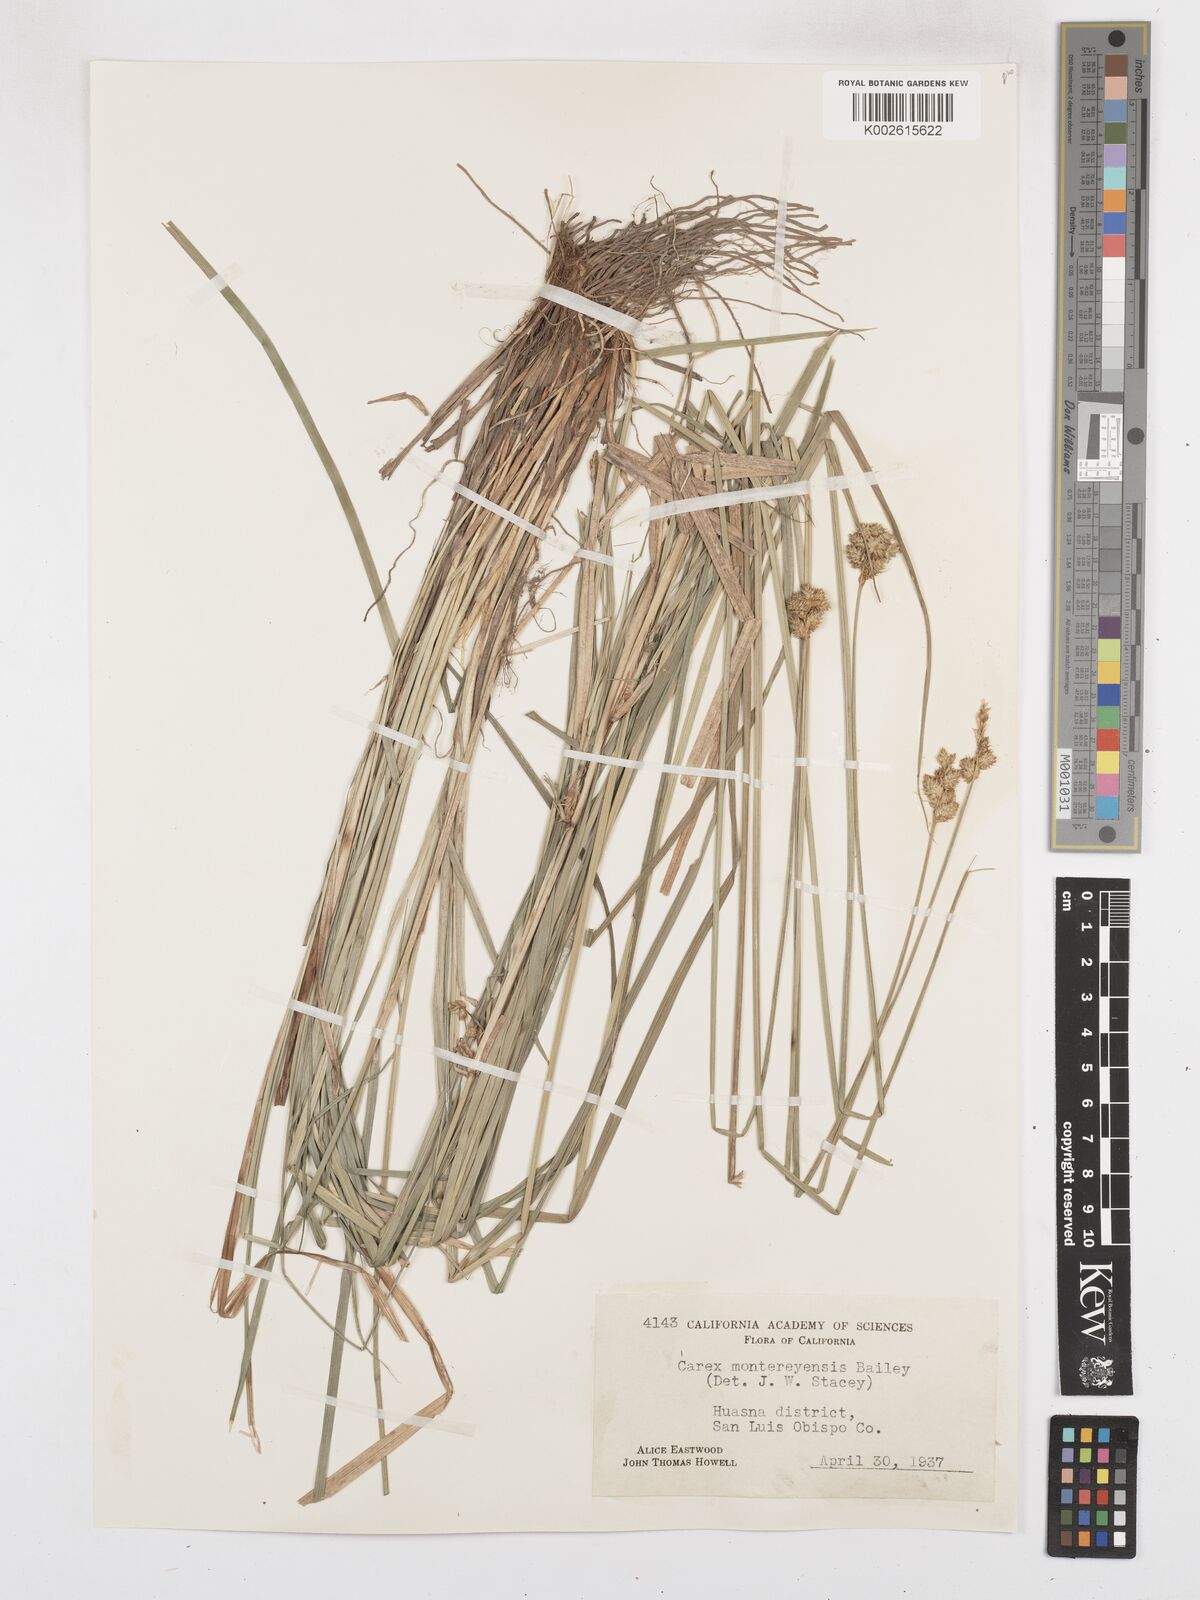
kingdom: Plantae
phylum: Tracheophyta
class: Liliopsida
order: Poales
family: Cyperaceae
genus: Carex
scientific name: Carex harfordii
